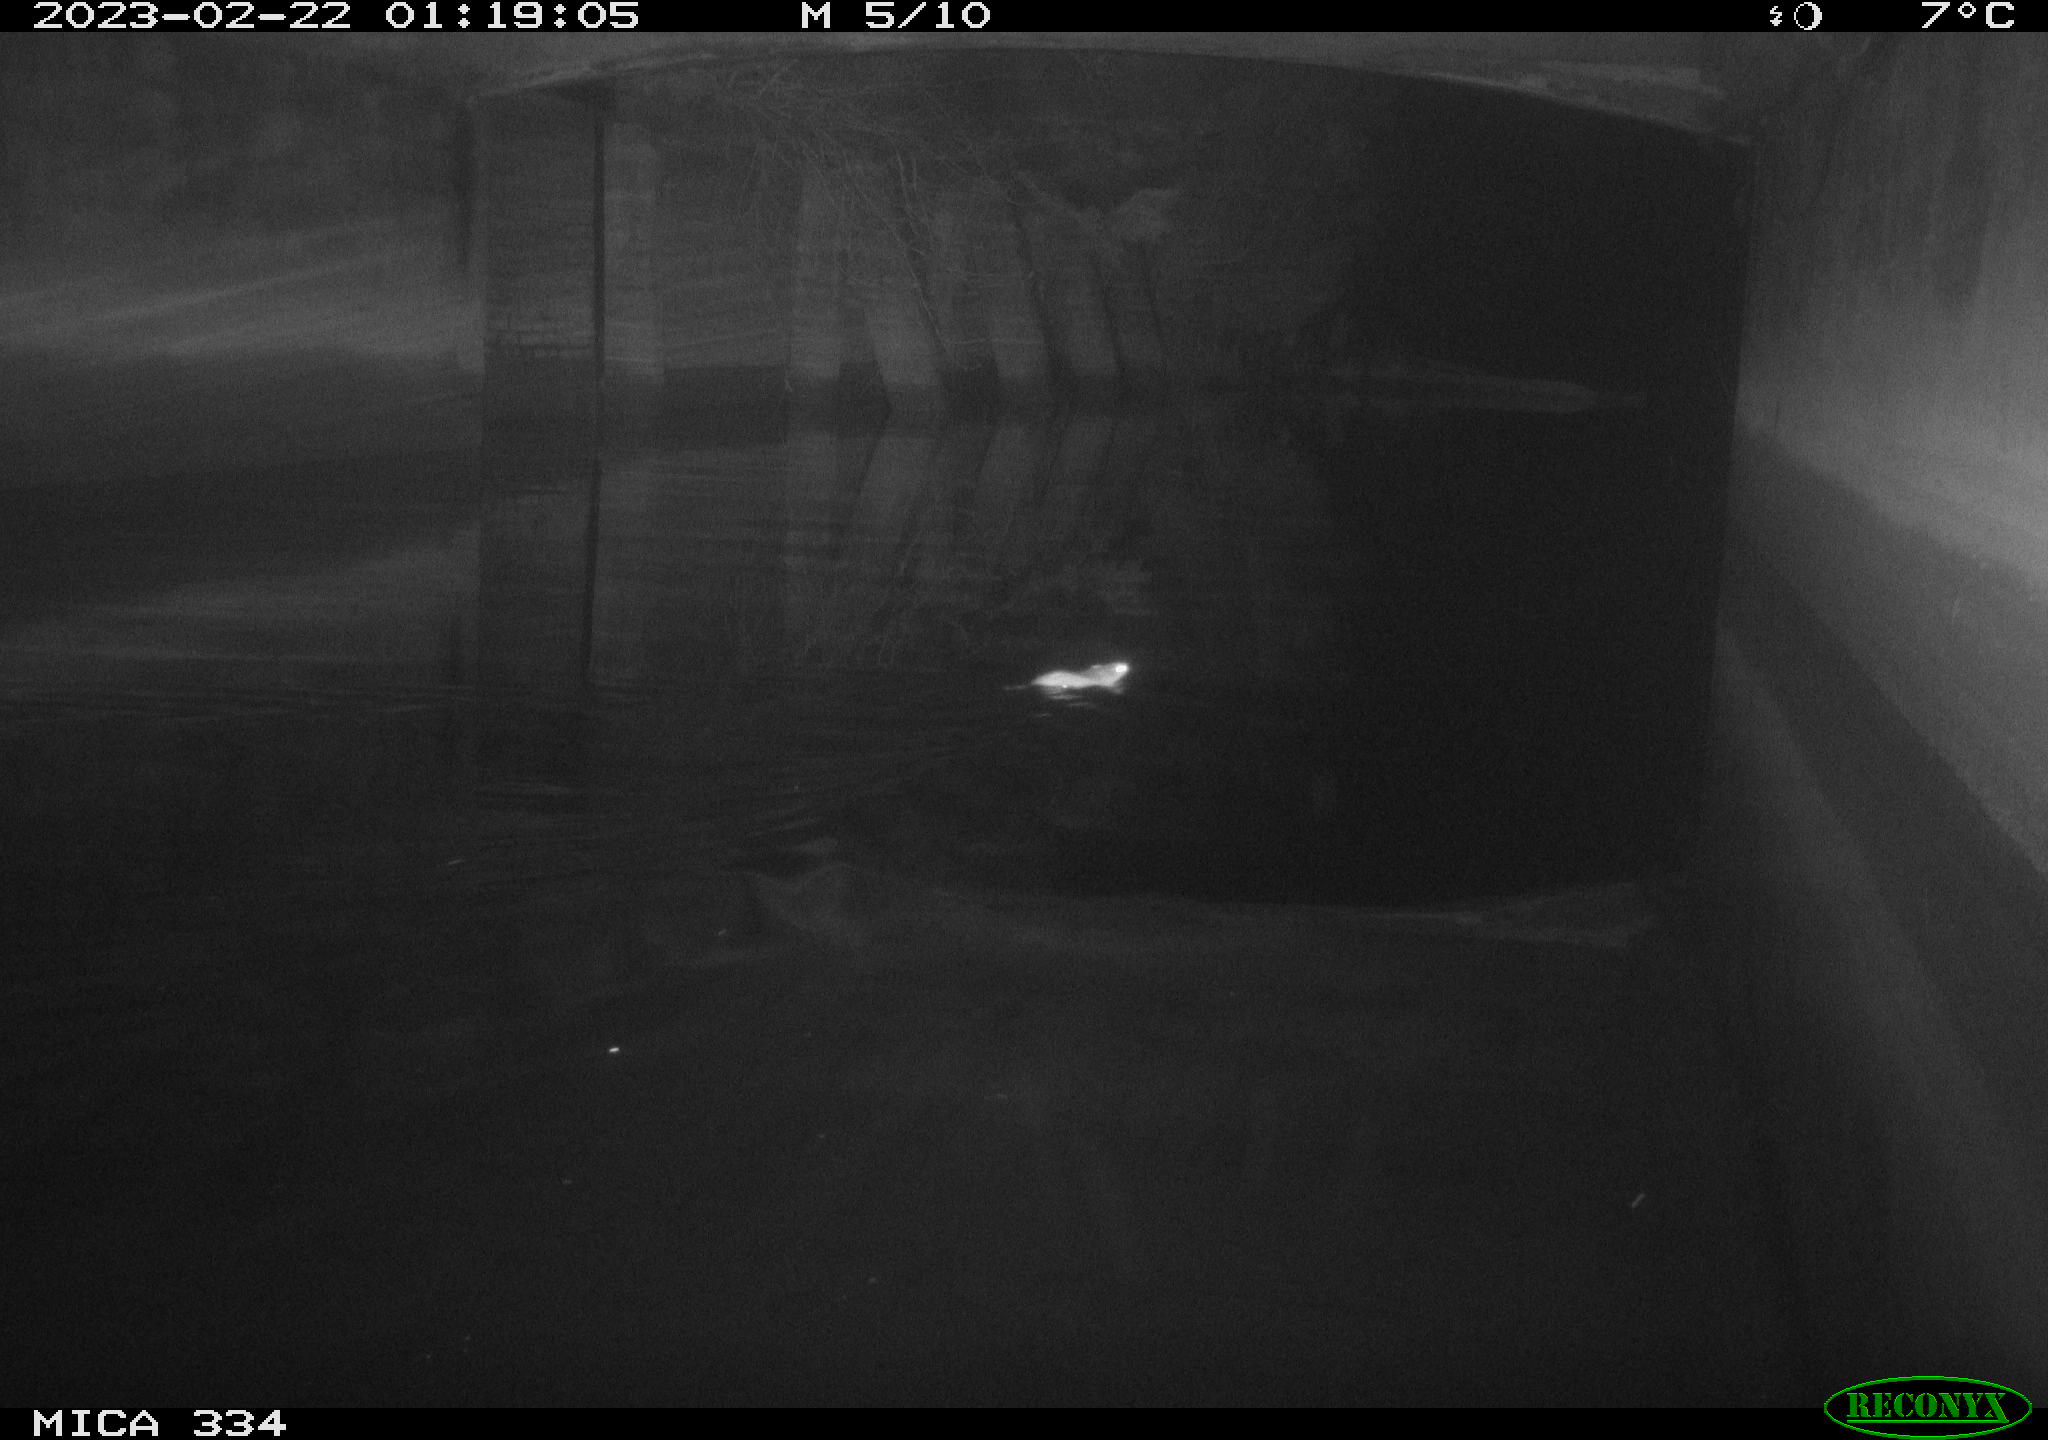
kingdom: Animalia
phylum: Chordata
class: Mammalia
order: Rodentia
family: Muridae
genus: Rattus
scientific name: Rattus norvegicus
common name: Brown rat
